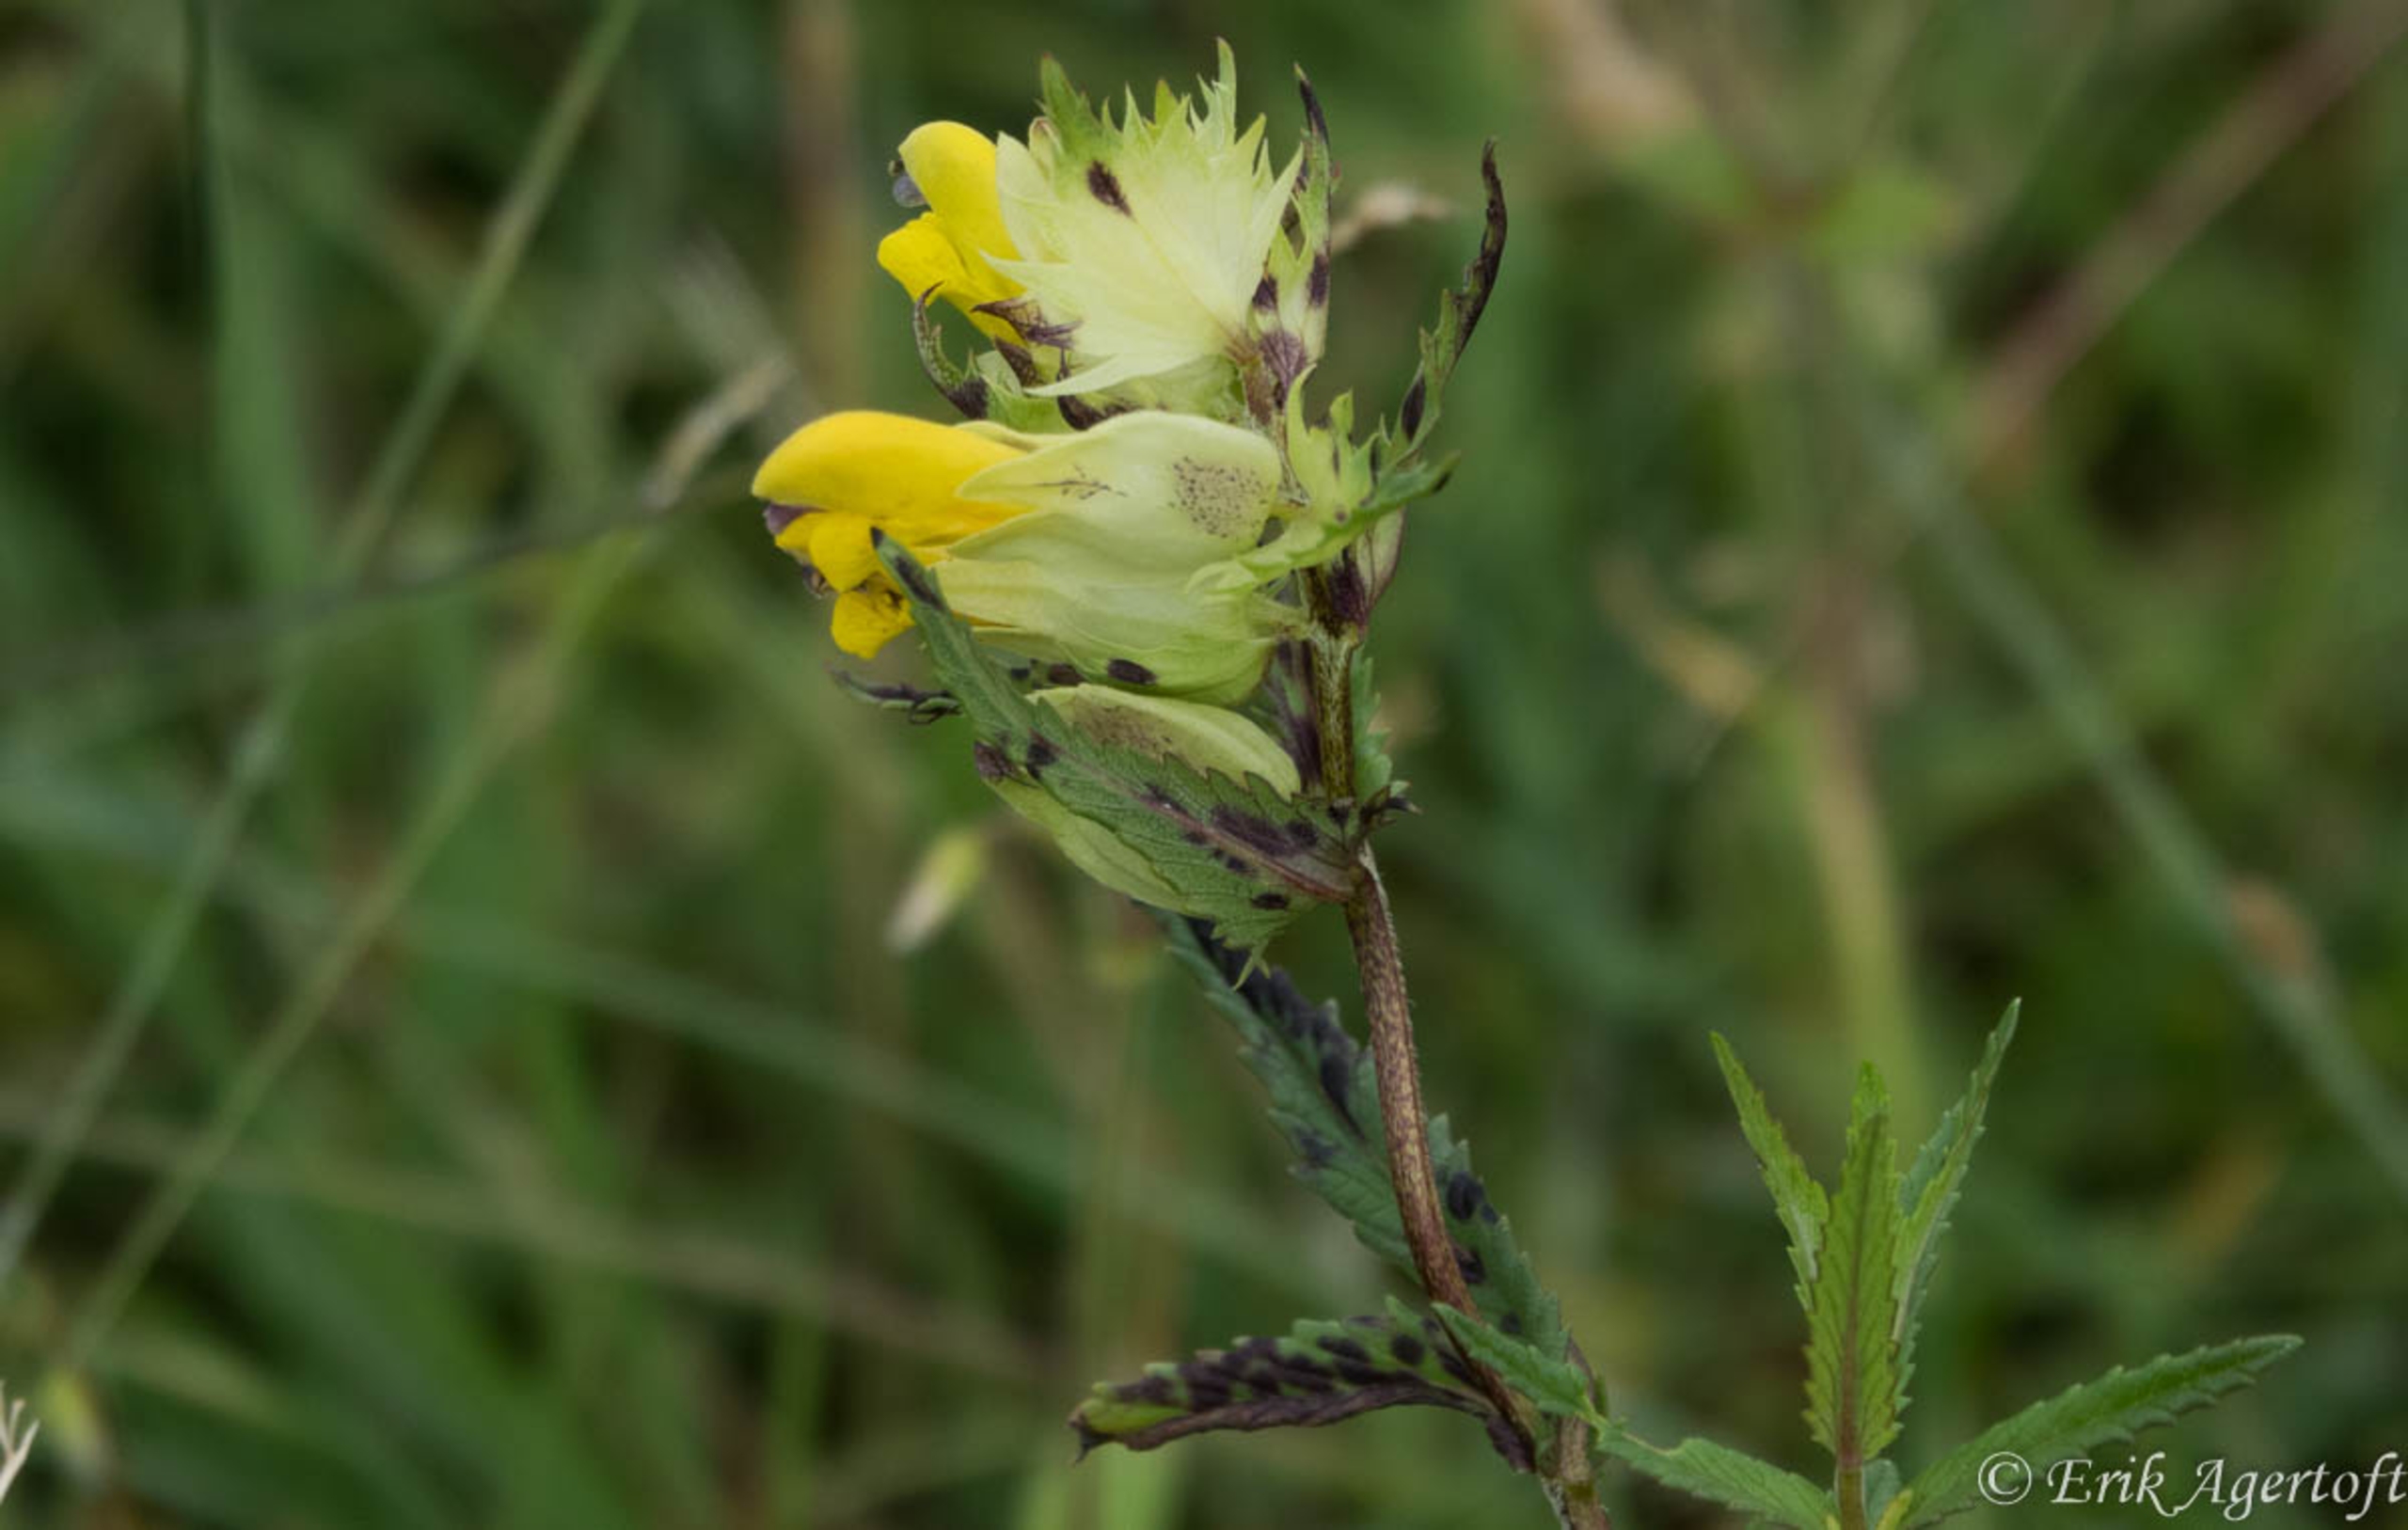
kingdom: Plantae
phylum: Tracheophyta
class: Magnoliopsida
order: Lamiales
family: Orobanchaceae
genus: Rhinanthus
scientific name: Rhinanthus
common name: Stor skjaller
